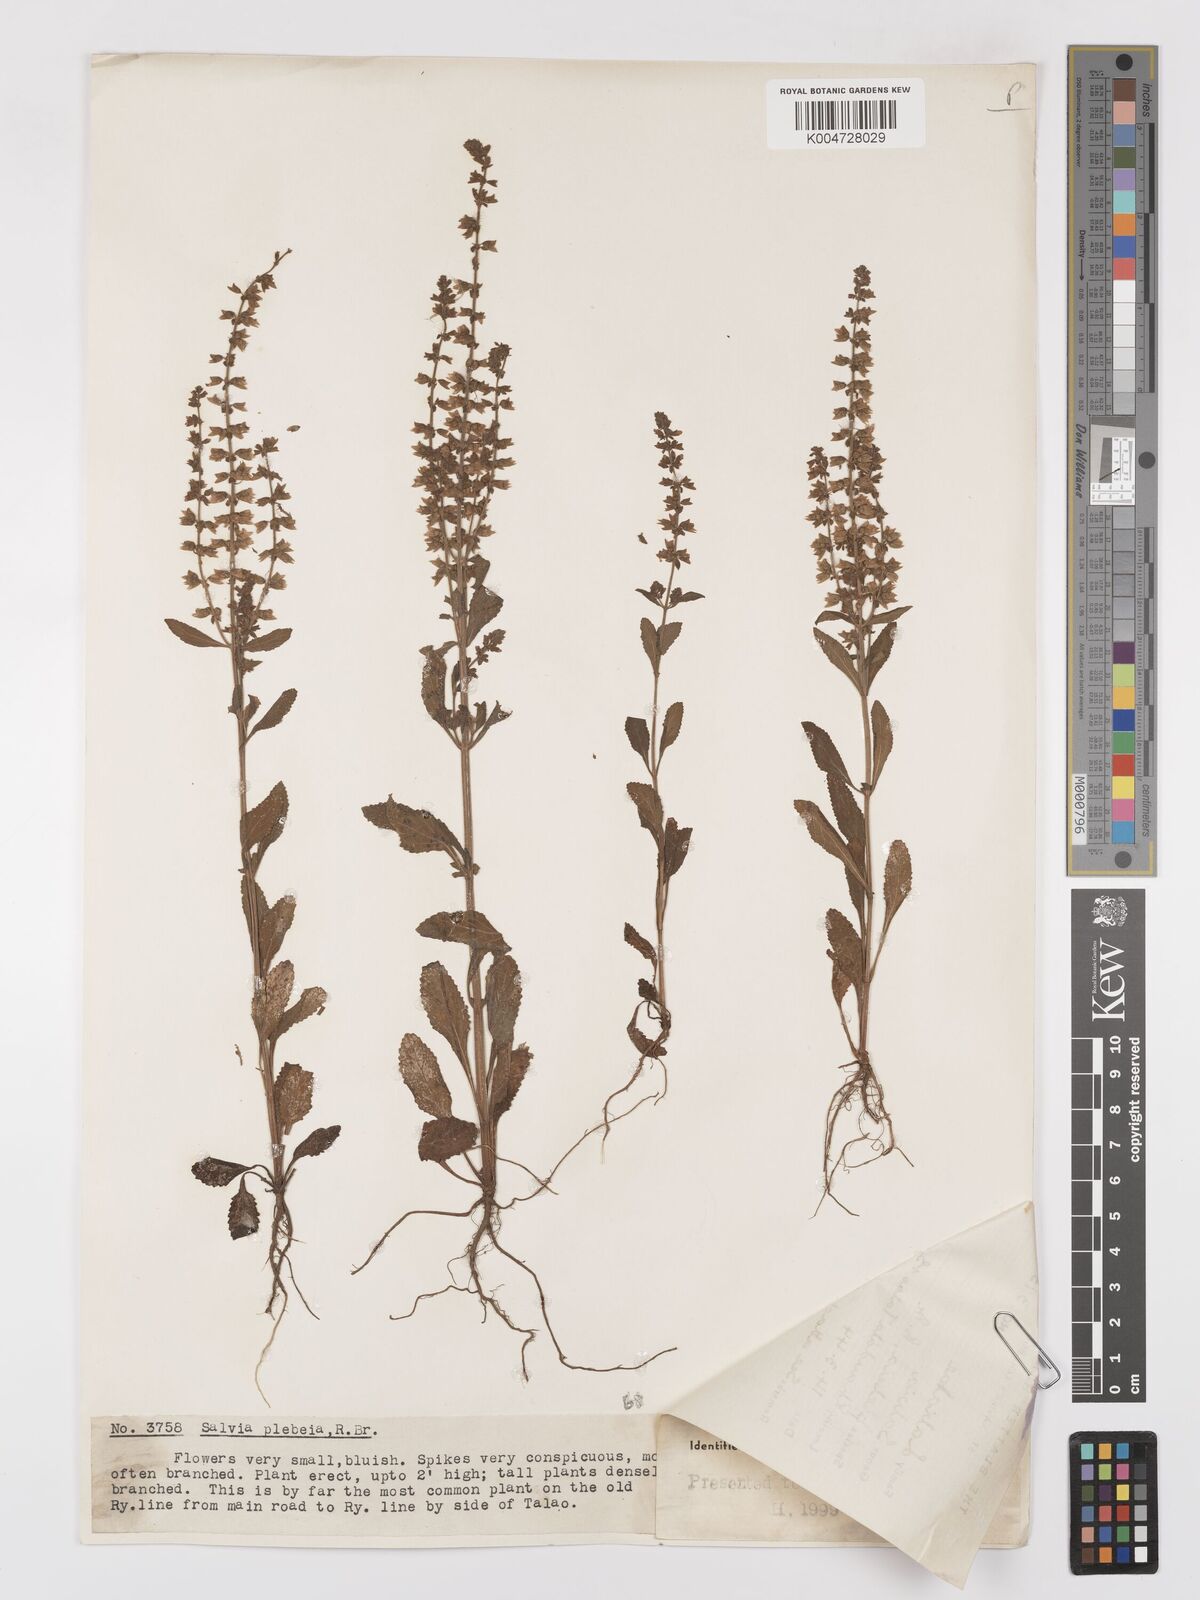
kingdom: Plantae
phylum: Tracheophyta
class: Magnoliopsida
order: Lamiales
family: Lamiaceae
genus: Salvia
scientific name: Salvia plebeia
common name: Australian sage
